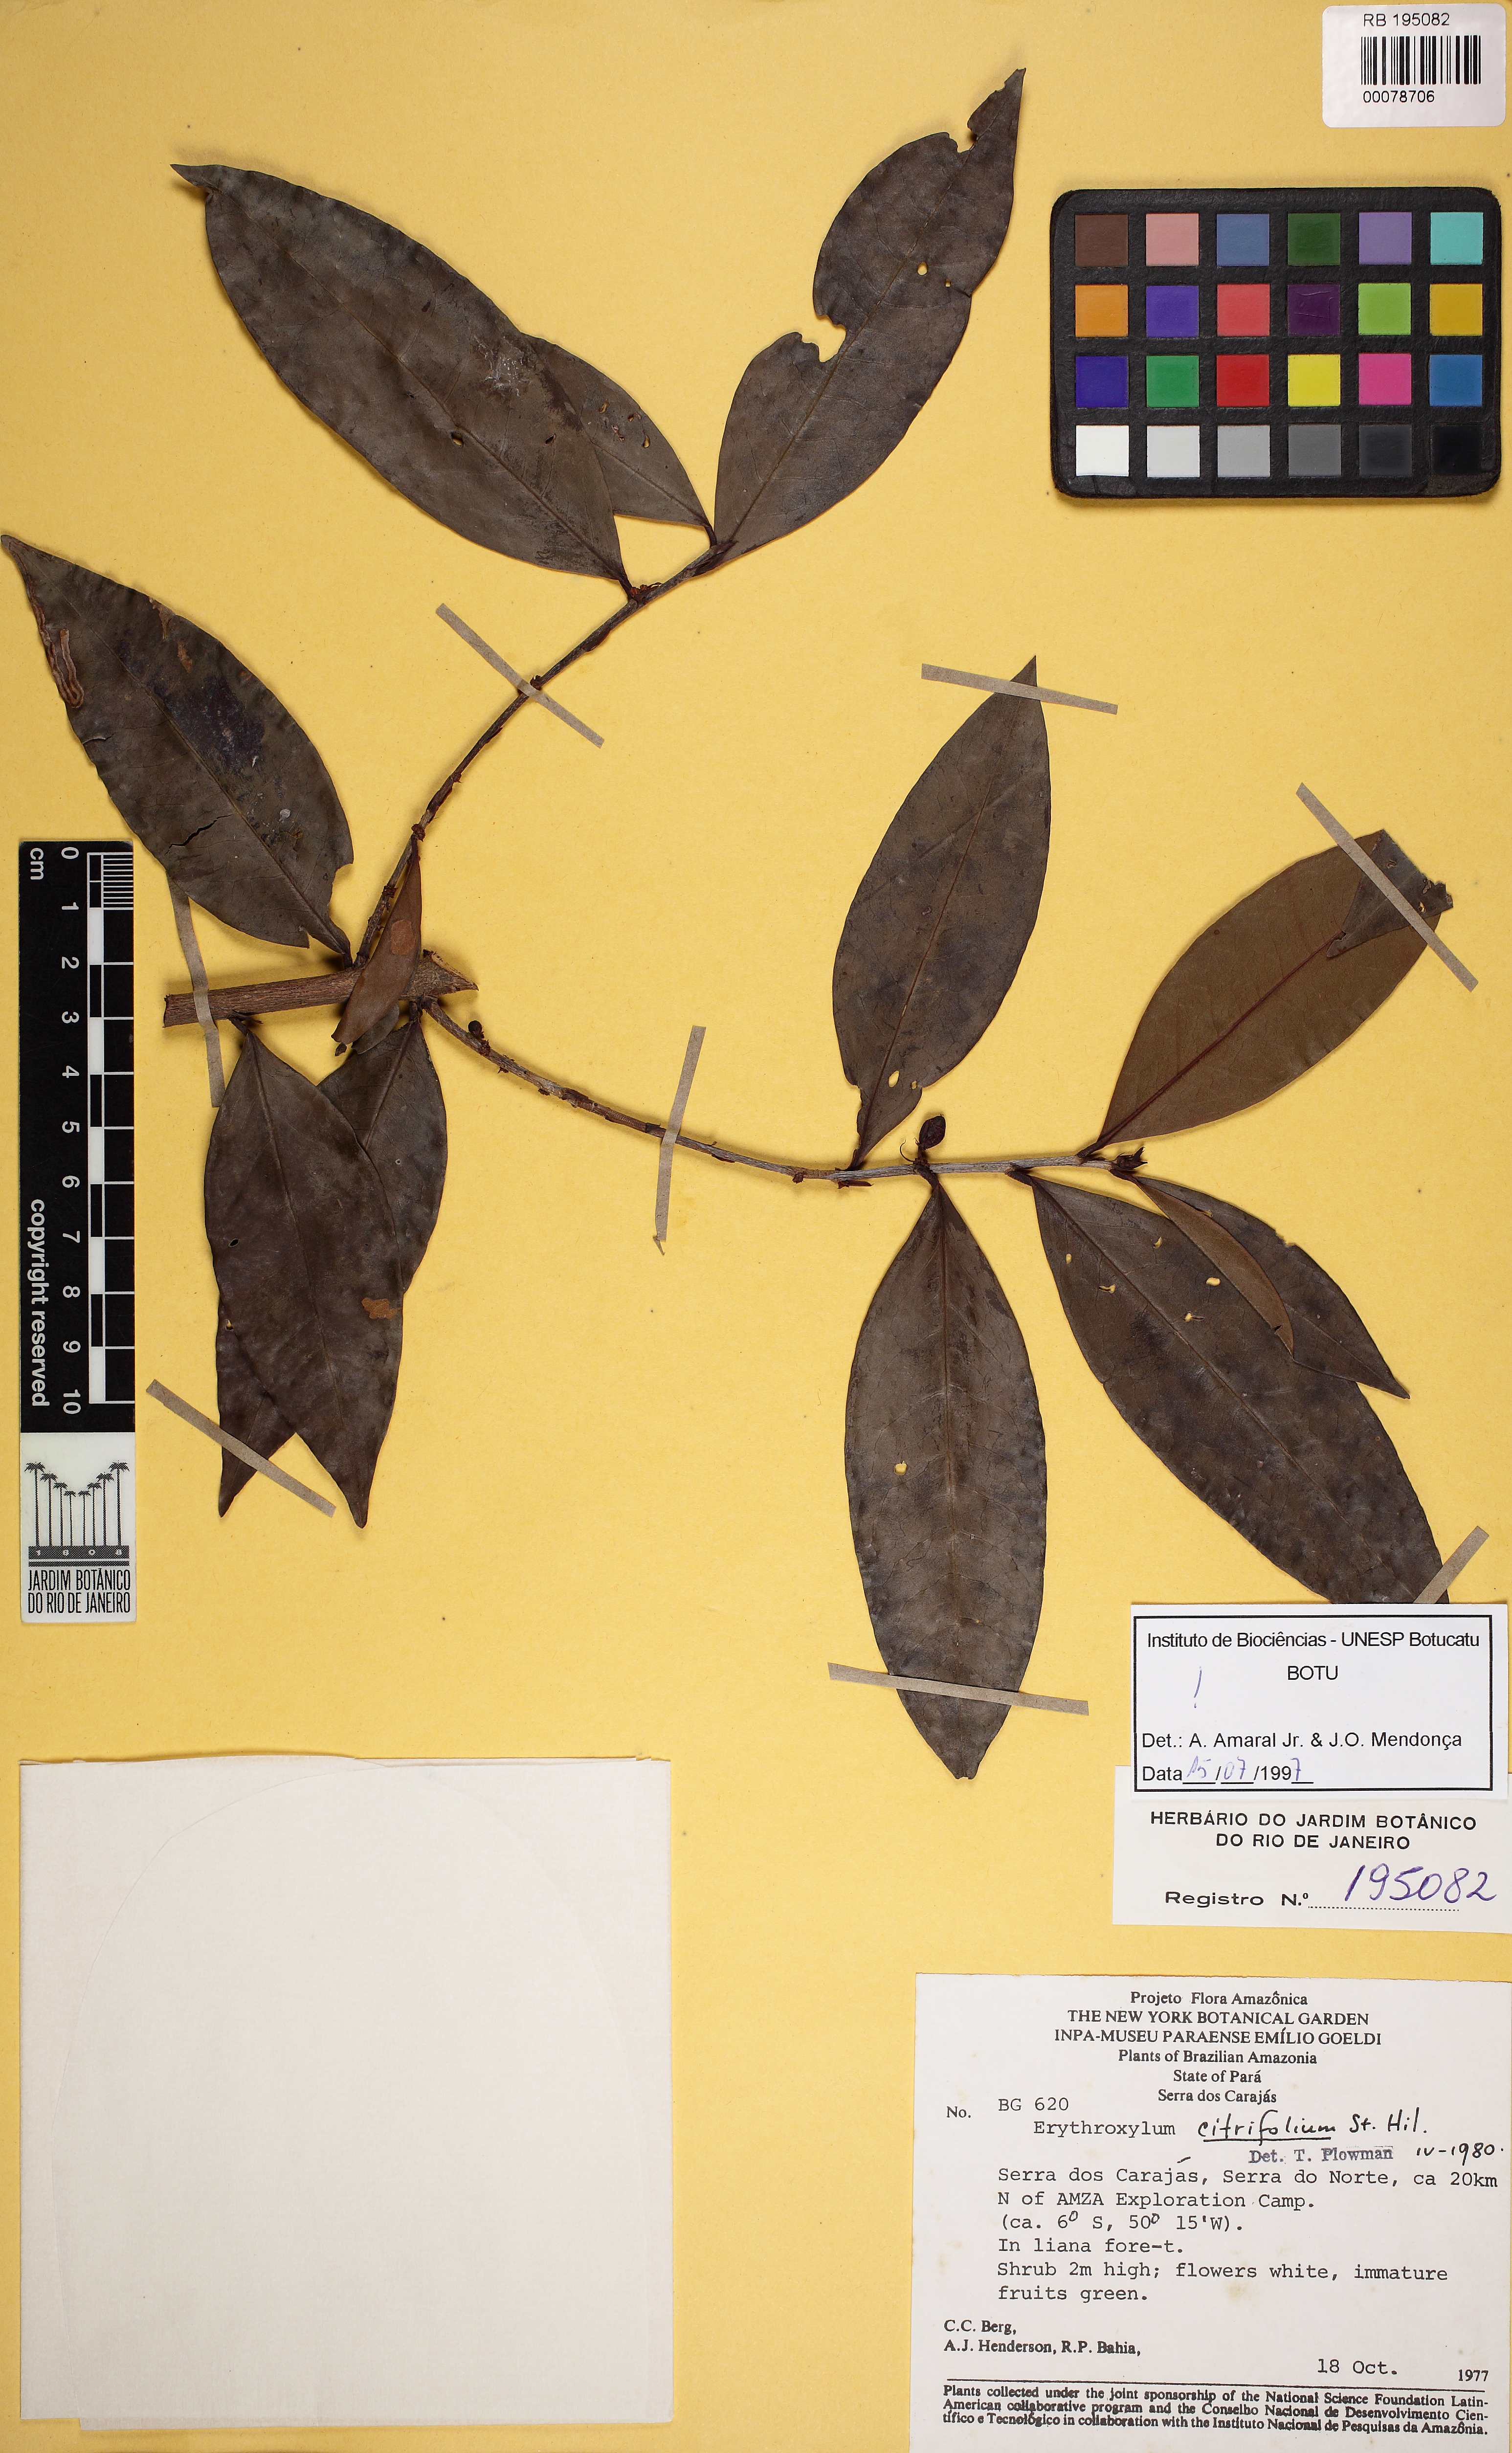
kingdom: Plantae
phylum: Tracheophyta
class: Magnoliopsida
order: Malpighiales
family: Erythroxylaceae
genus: Erythroxylum
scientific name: Erythroxylum citrifolium
